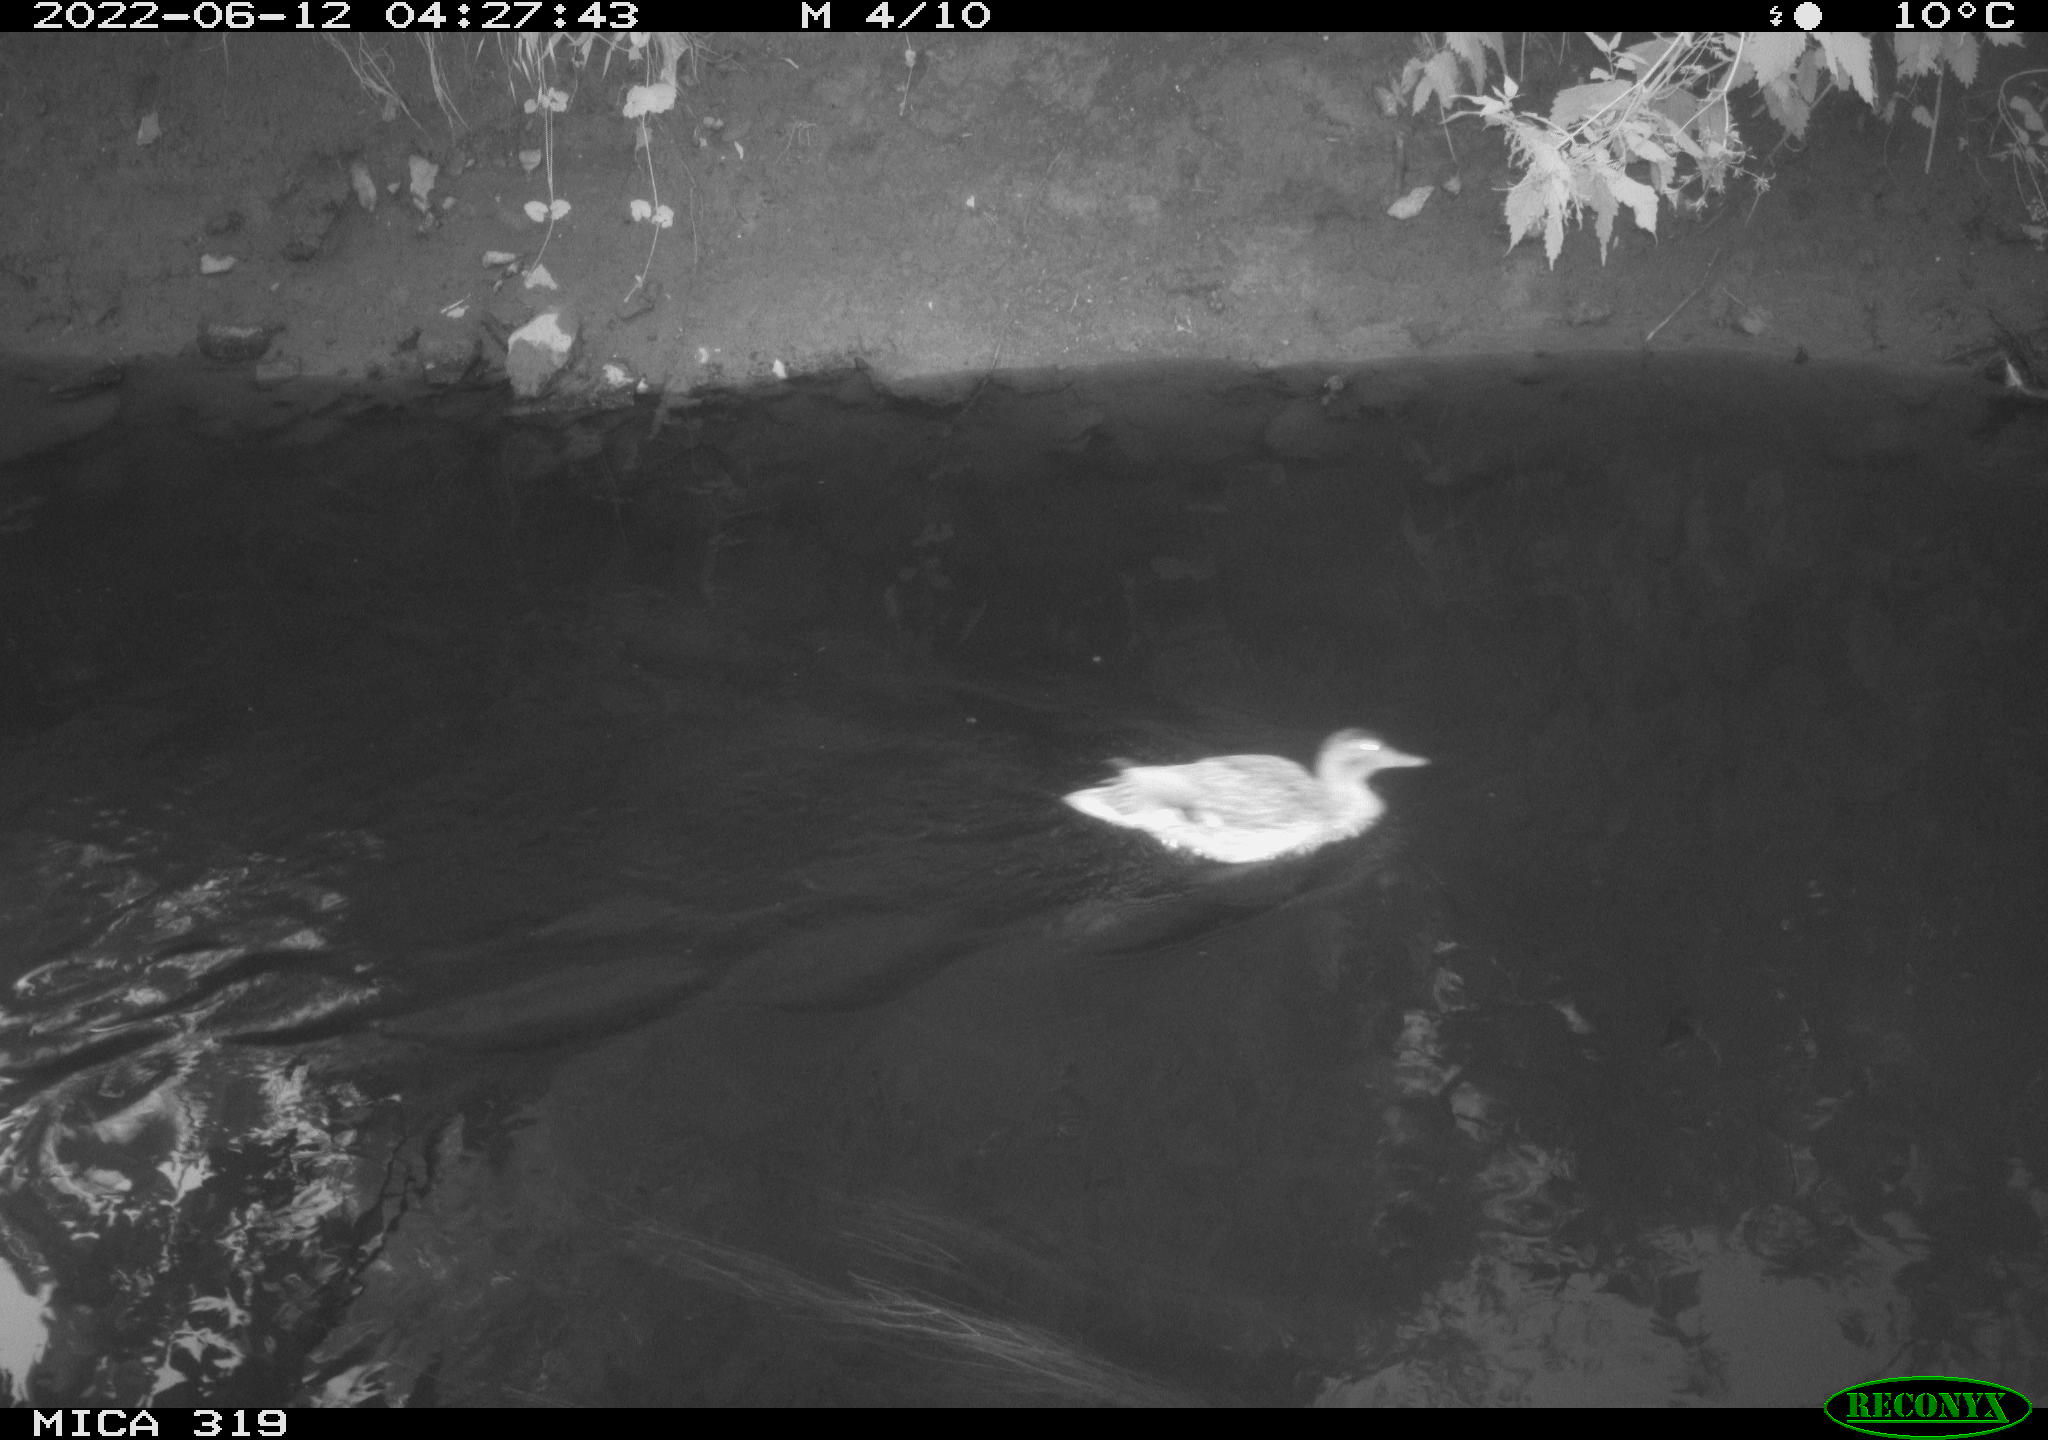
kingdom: Animalia
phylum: Chordata
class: Aves
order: Anseriformes
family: Anatidae
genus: Anas
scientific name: Anas
